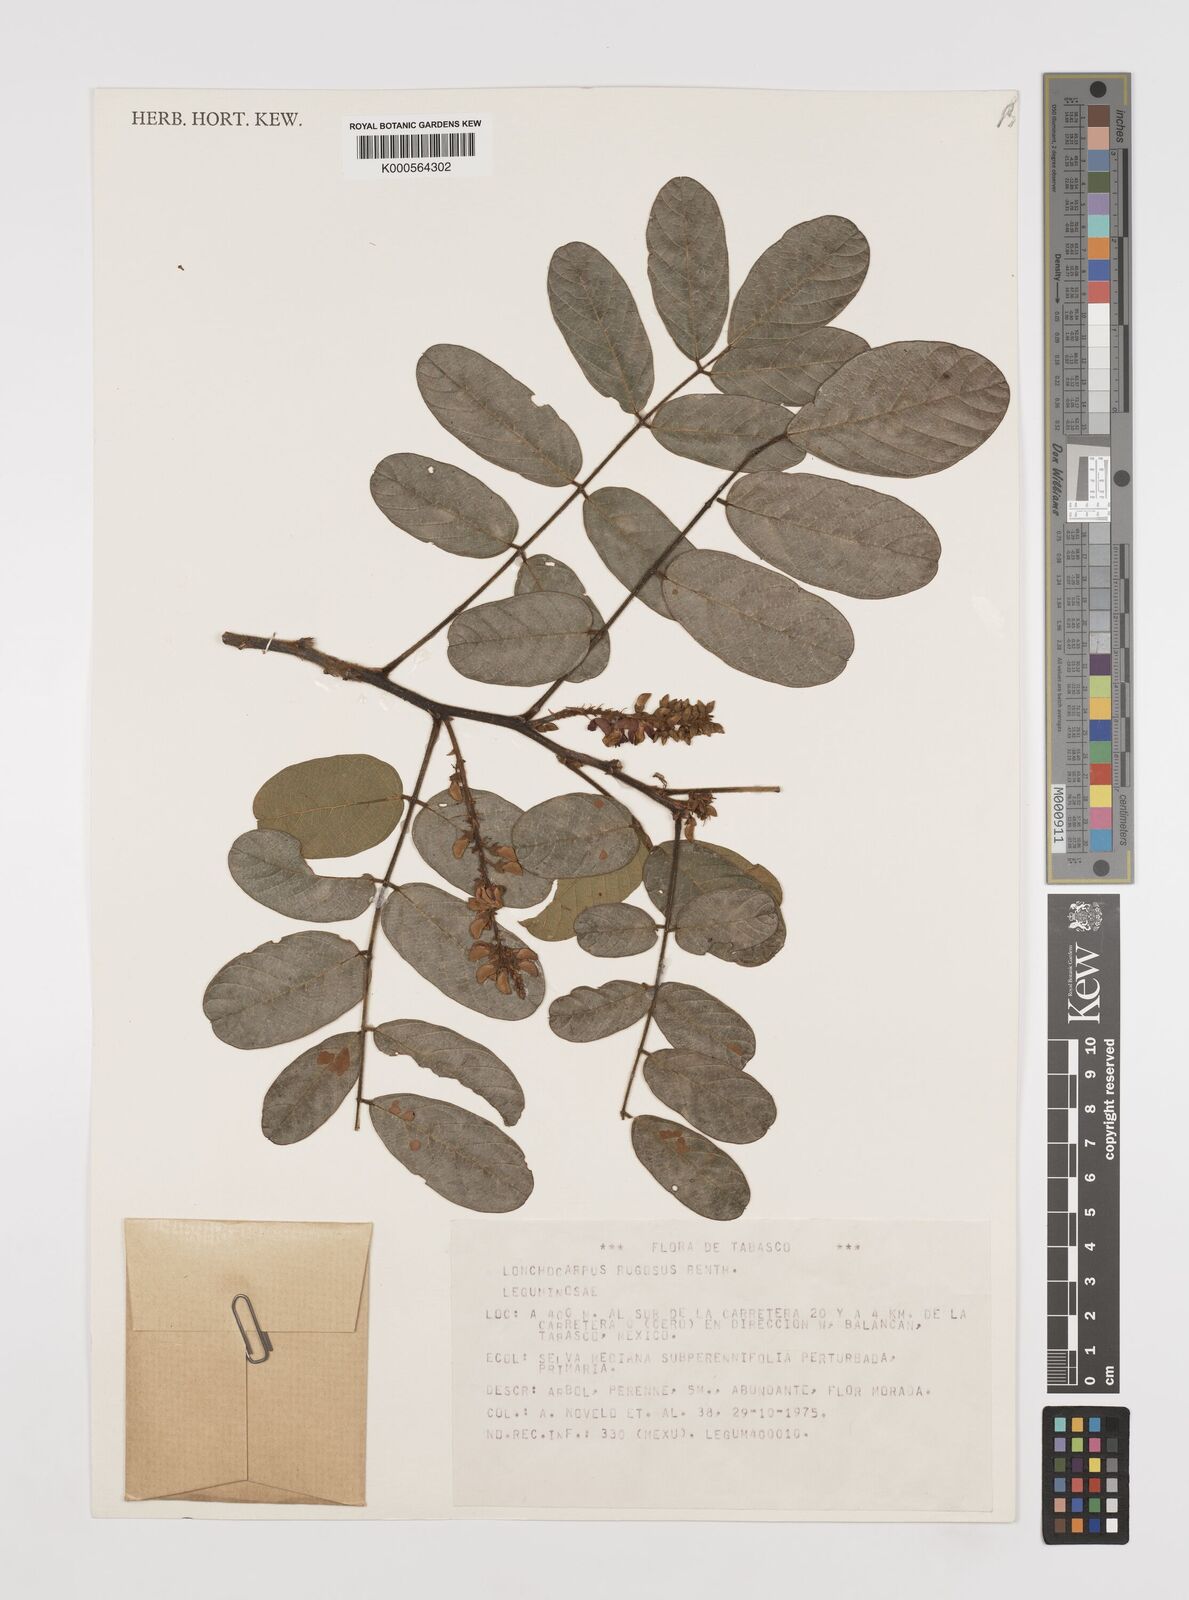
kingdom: Plantae
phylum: Tracheophyta
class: Magnoliopsida
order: Fabales
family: Fabaceae
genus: Lonchocarpus
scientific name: Lonchocarpus rugosus
